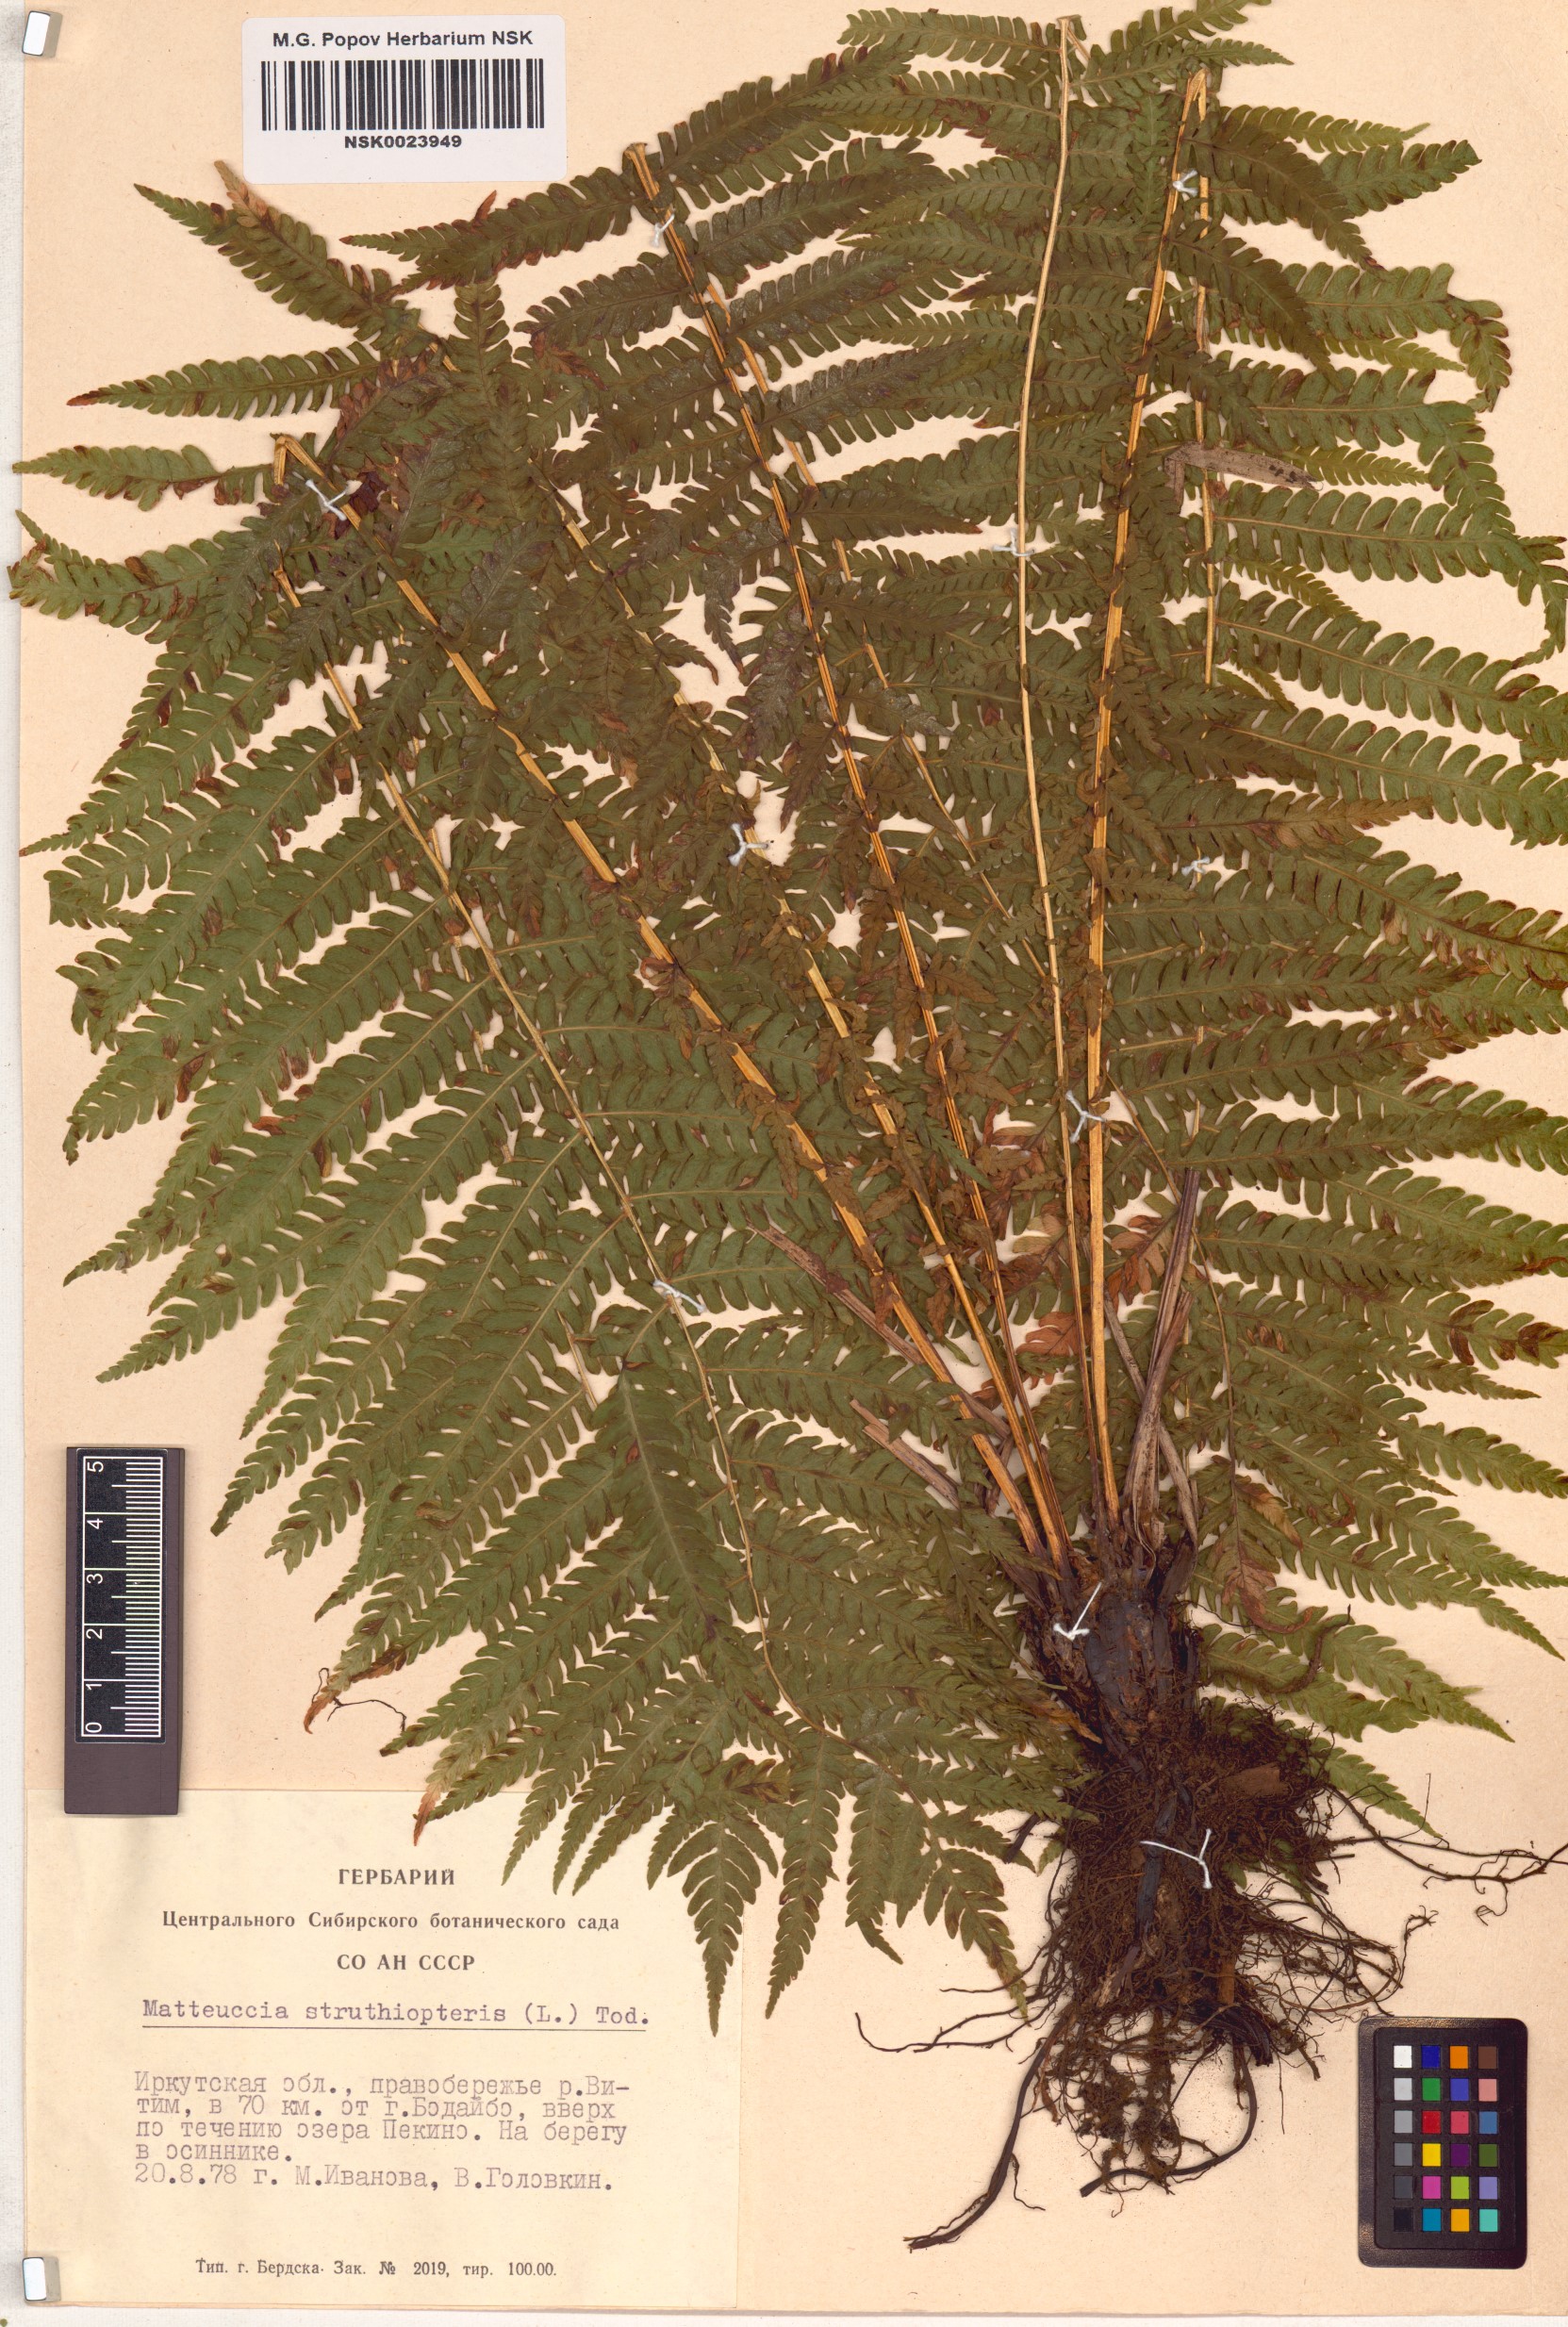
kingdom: Plantae
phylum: Tracheophyta
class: Polypodiopsida
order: Polypodiales
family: Onocleaceae
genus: Matteuccia
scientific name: Matteuccia struthiopteris
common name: Ostrich fern
